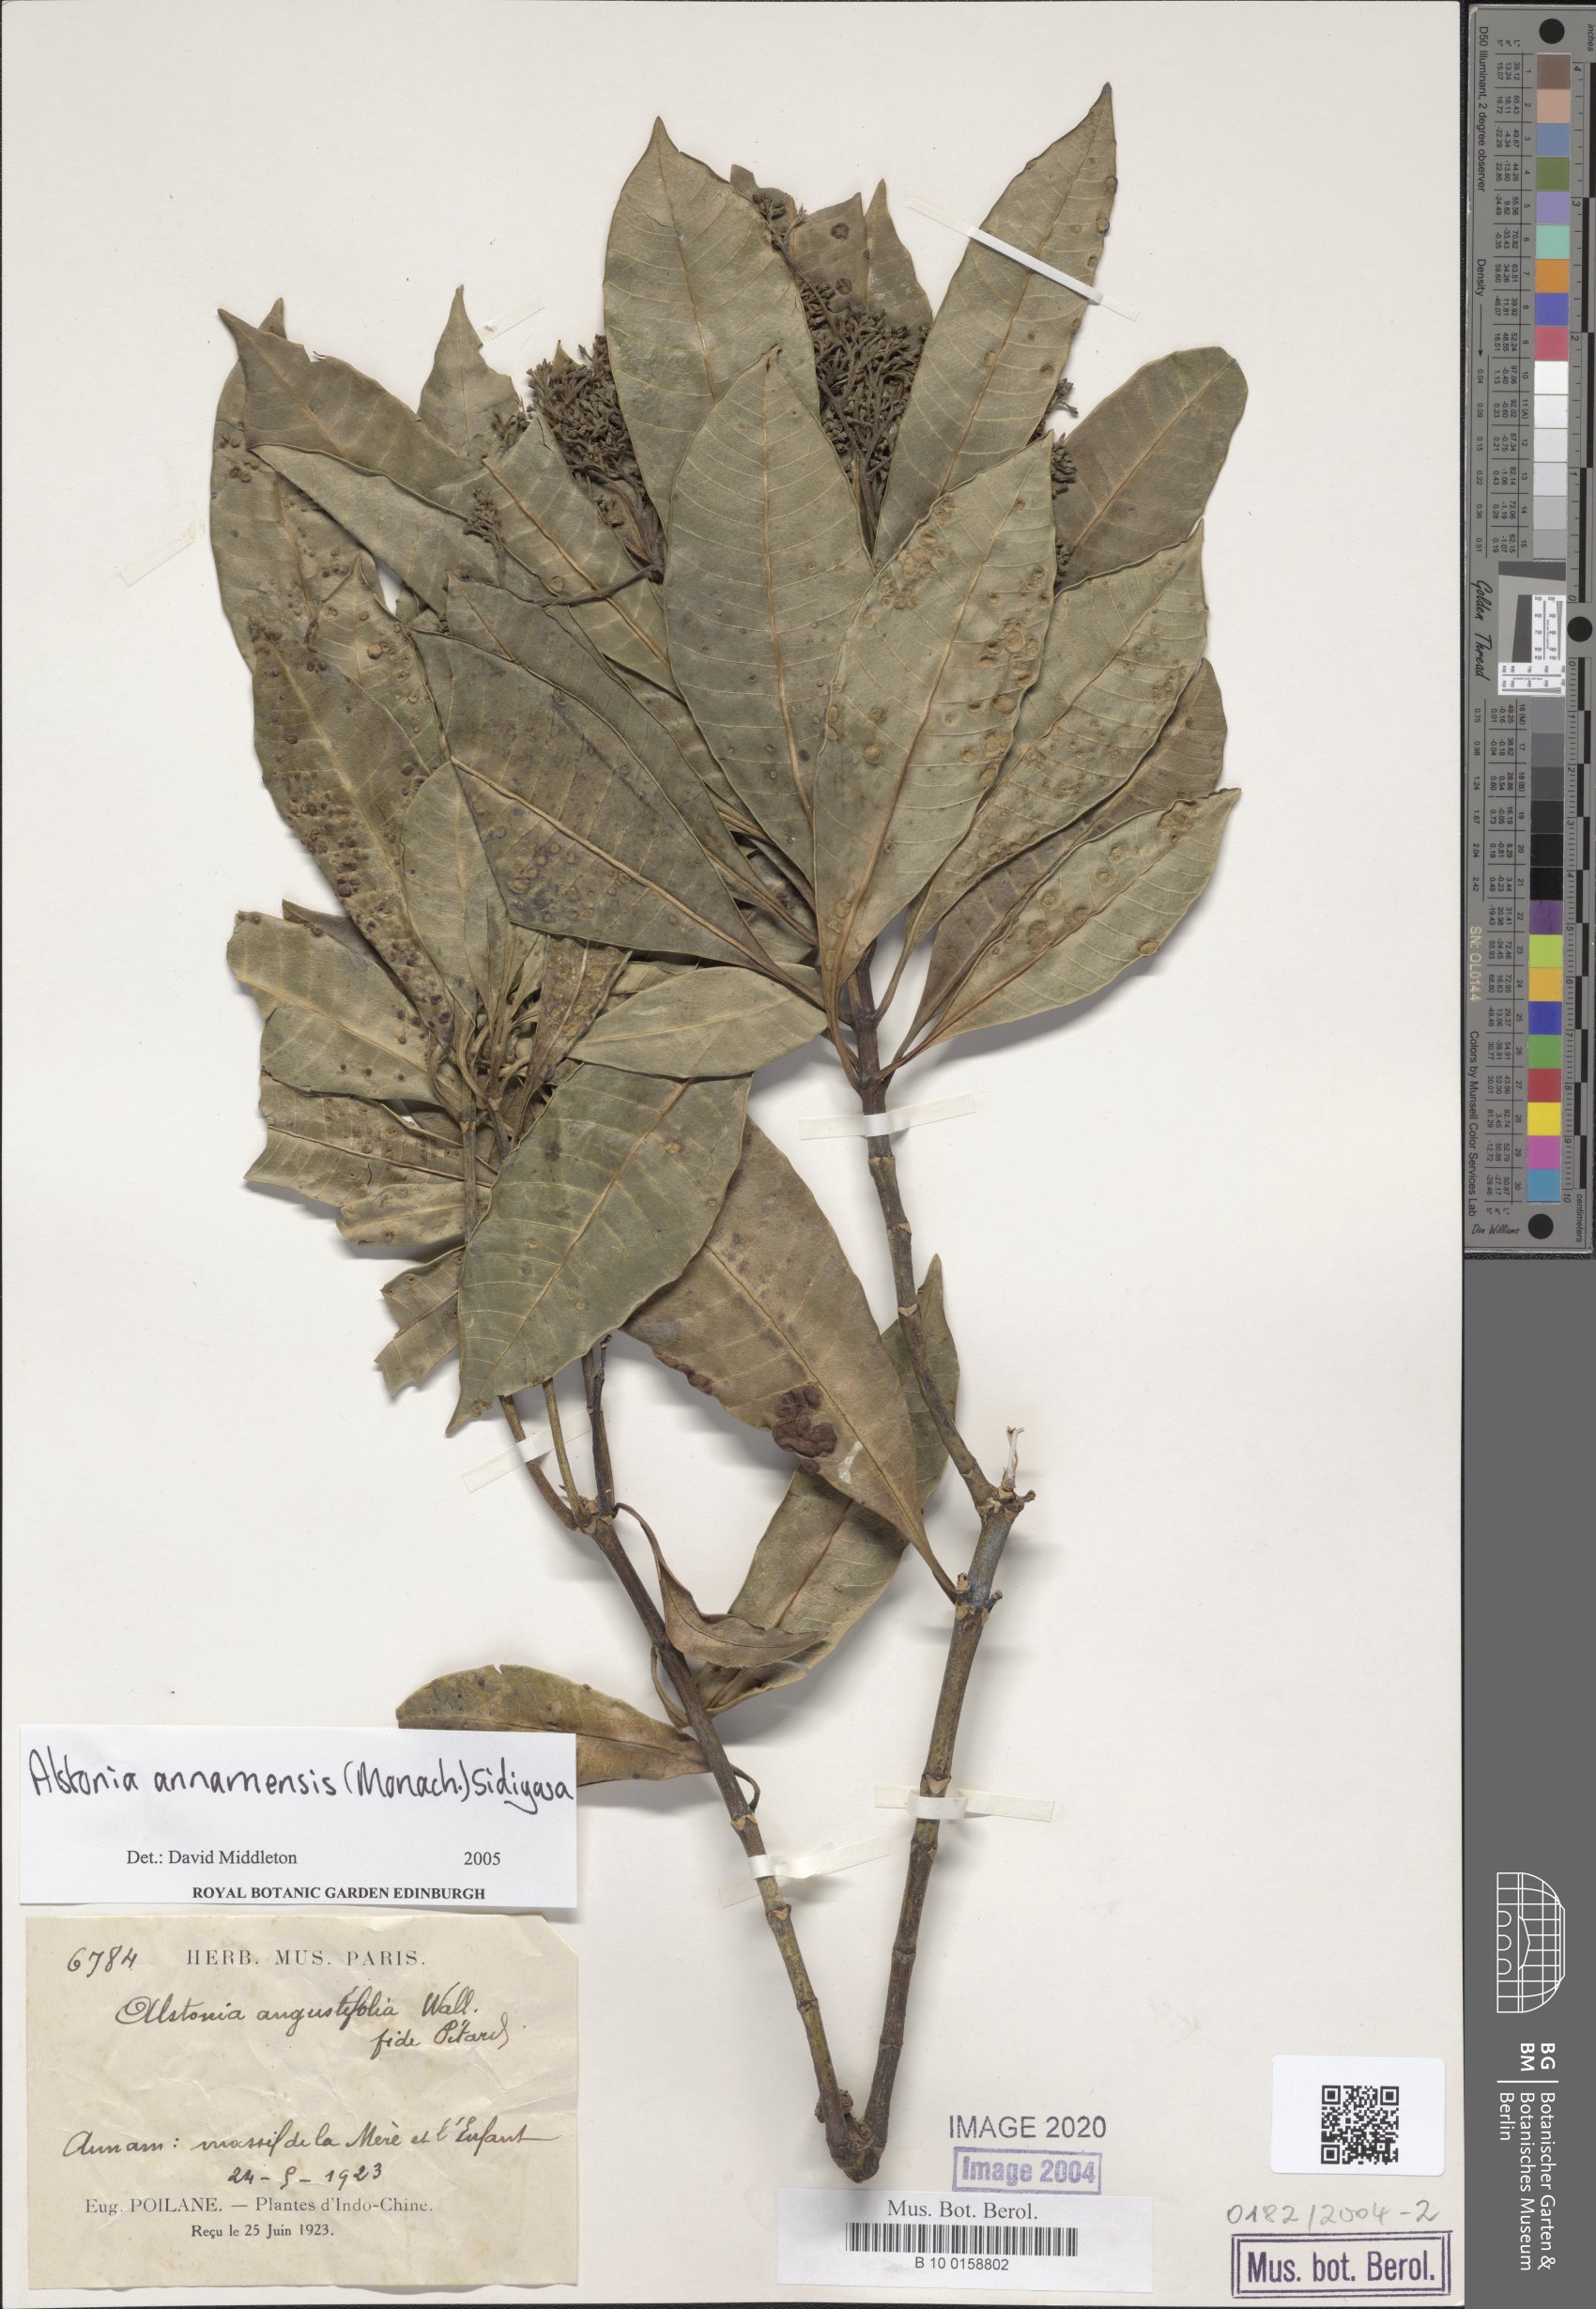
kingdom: Plantae
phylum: Tracheophyta
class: Magnoliopsida
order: Gentianales
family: Apocynaceae
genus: Alstonia
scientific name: Alstonia angustifolia
